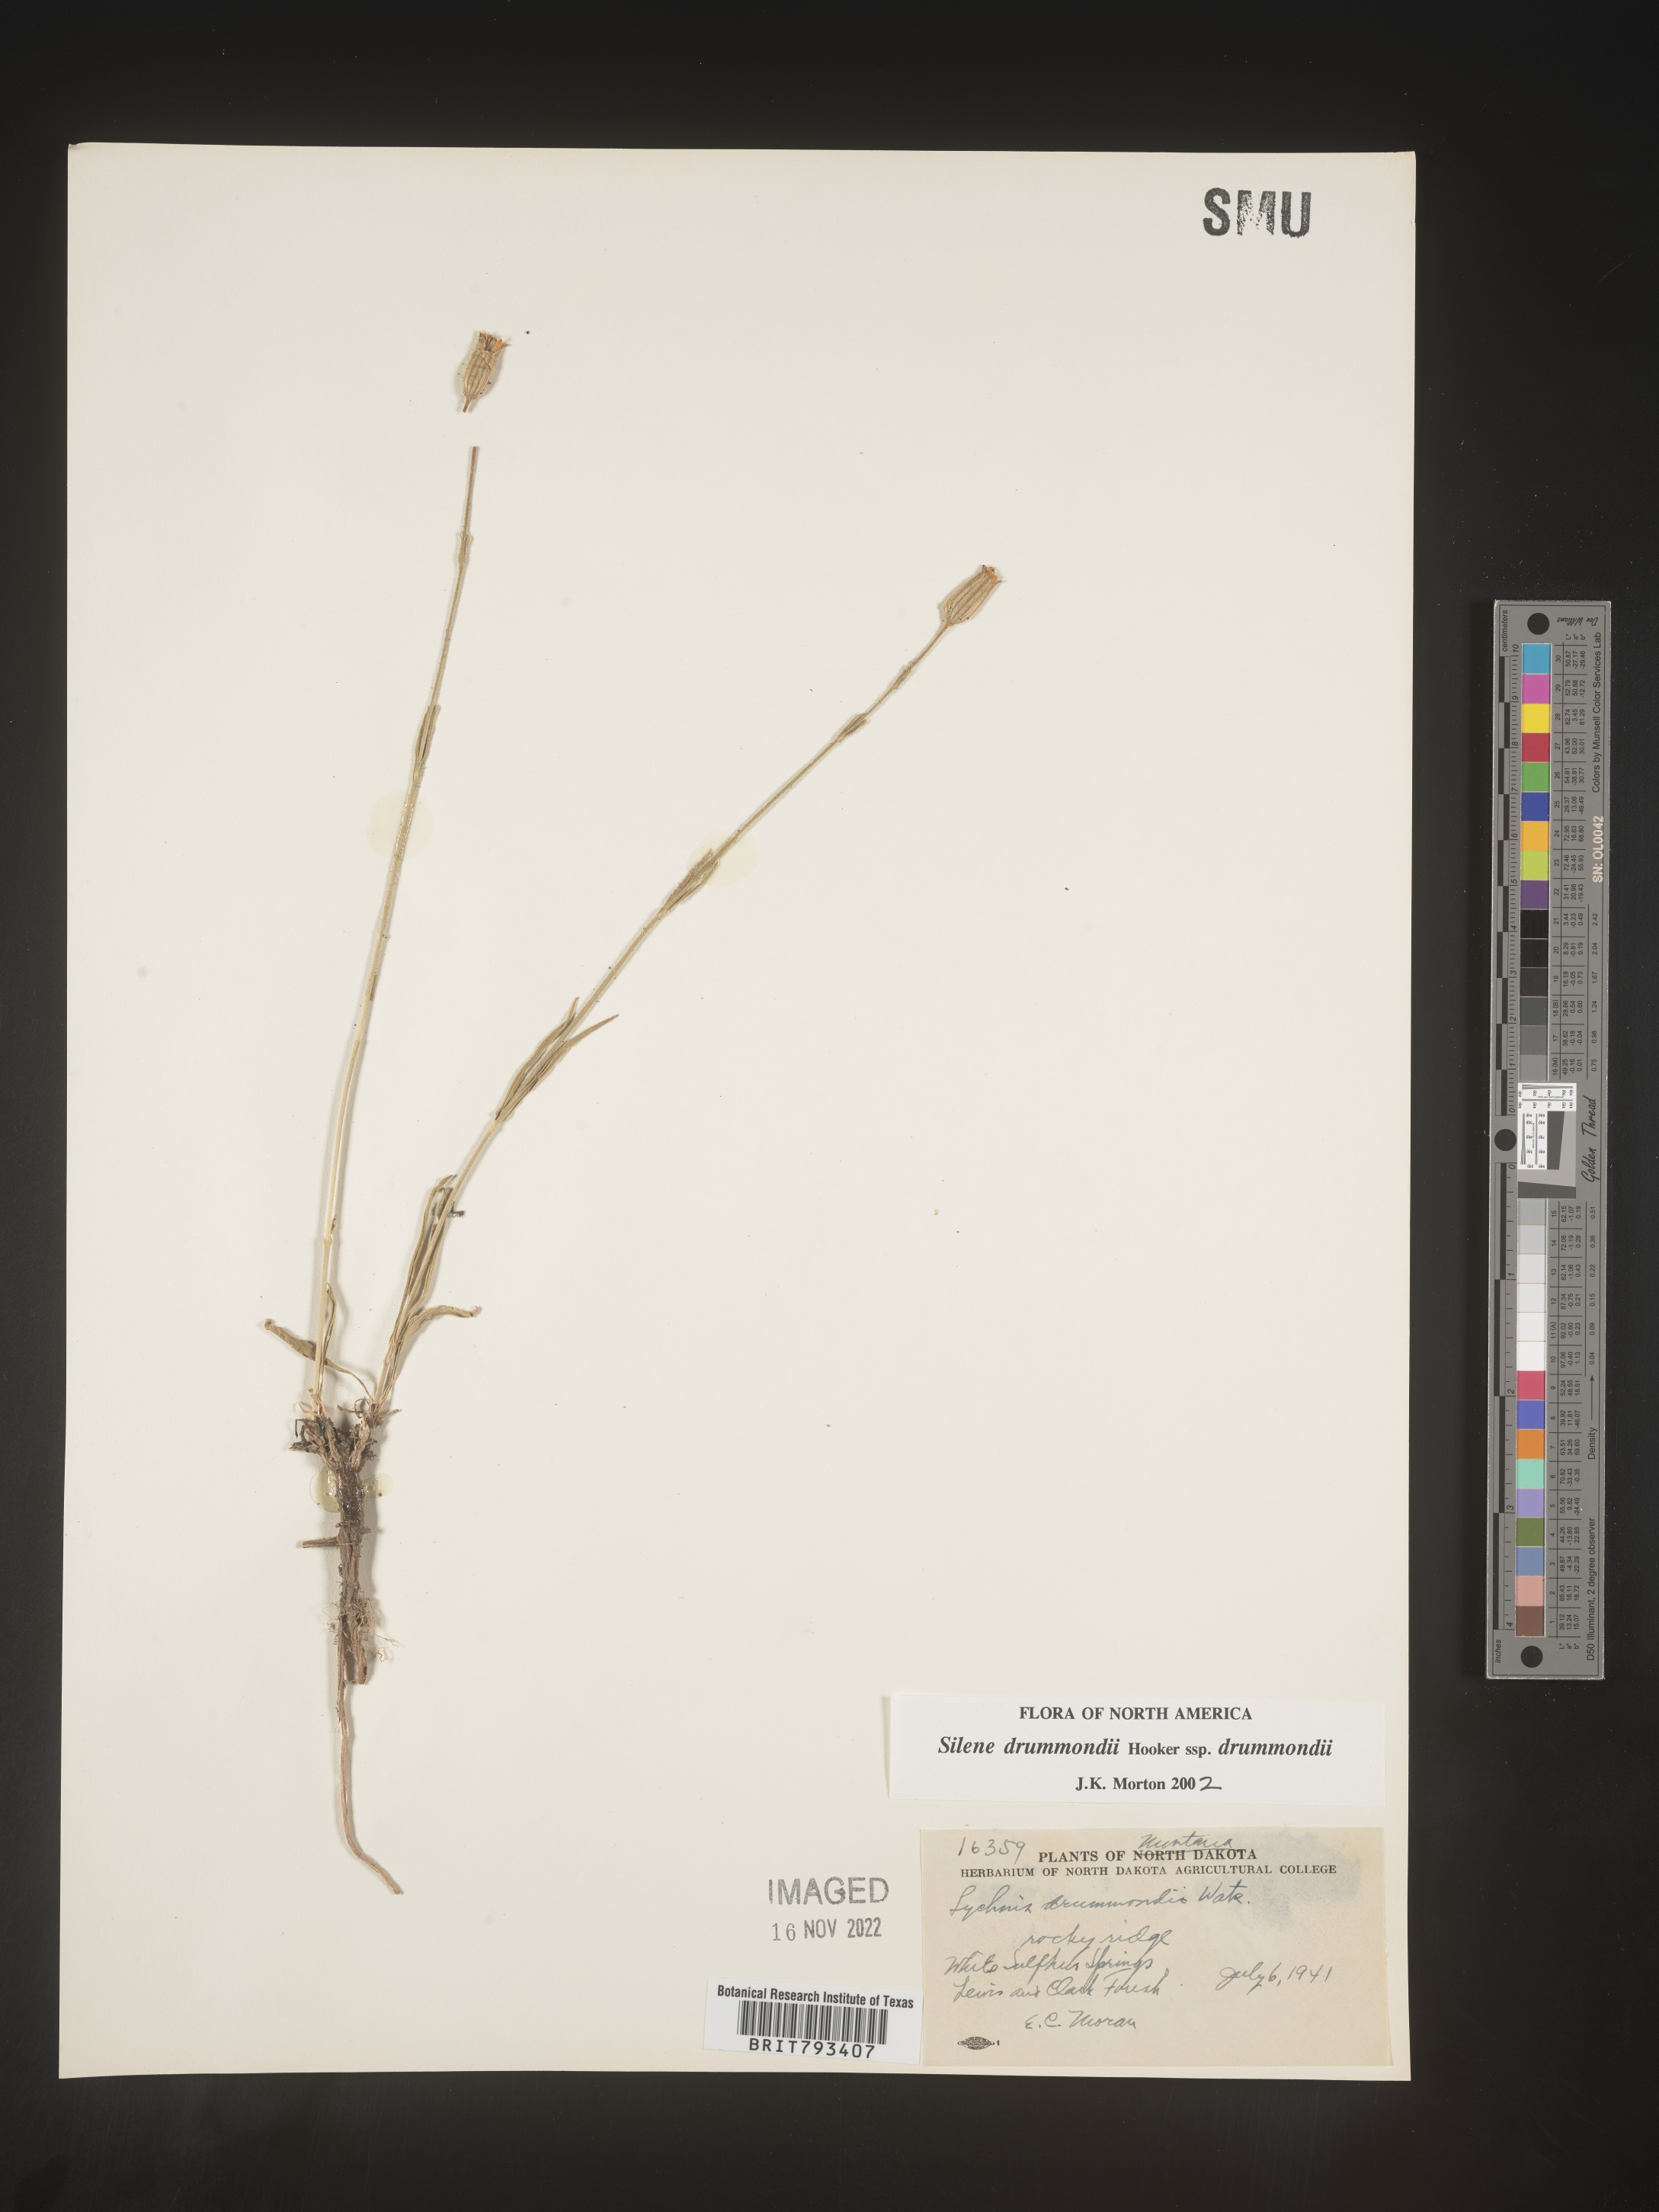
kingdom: Plantae
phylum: Tracheophyta
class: Magnoliopsida
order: Caryophyllales
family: Caryophyllaceae
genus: Silene
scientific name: Silene drummondii
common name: Drummond's catchfly
